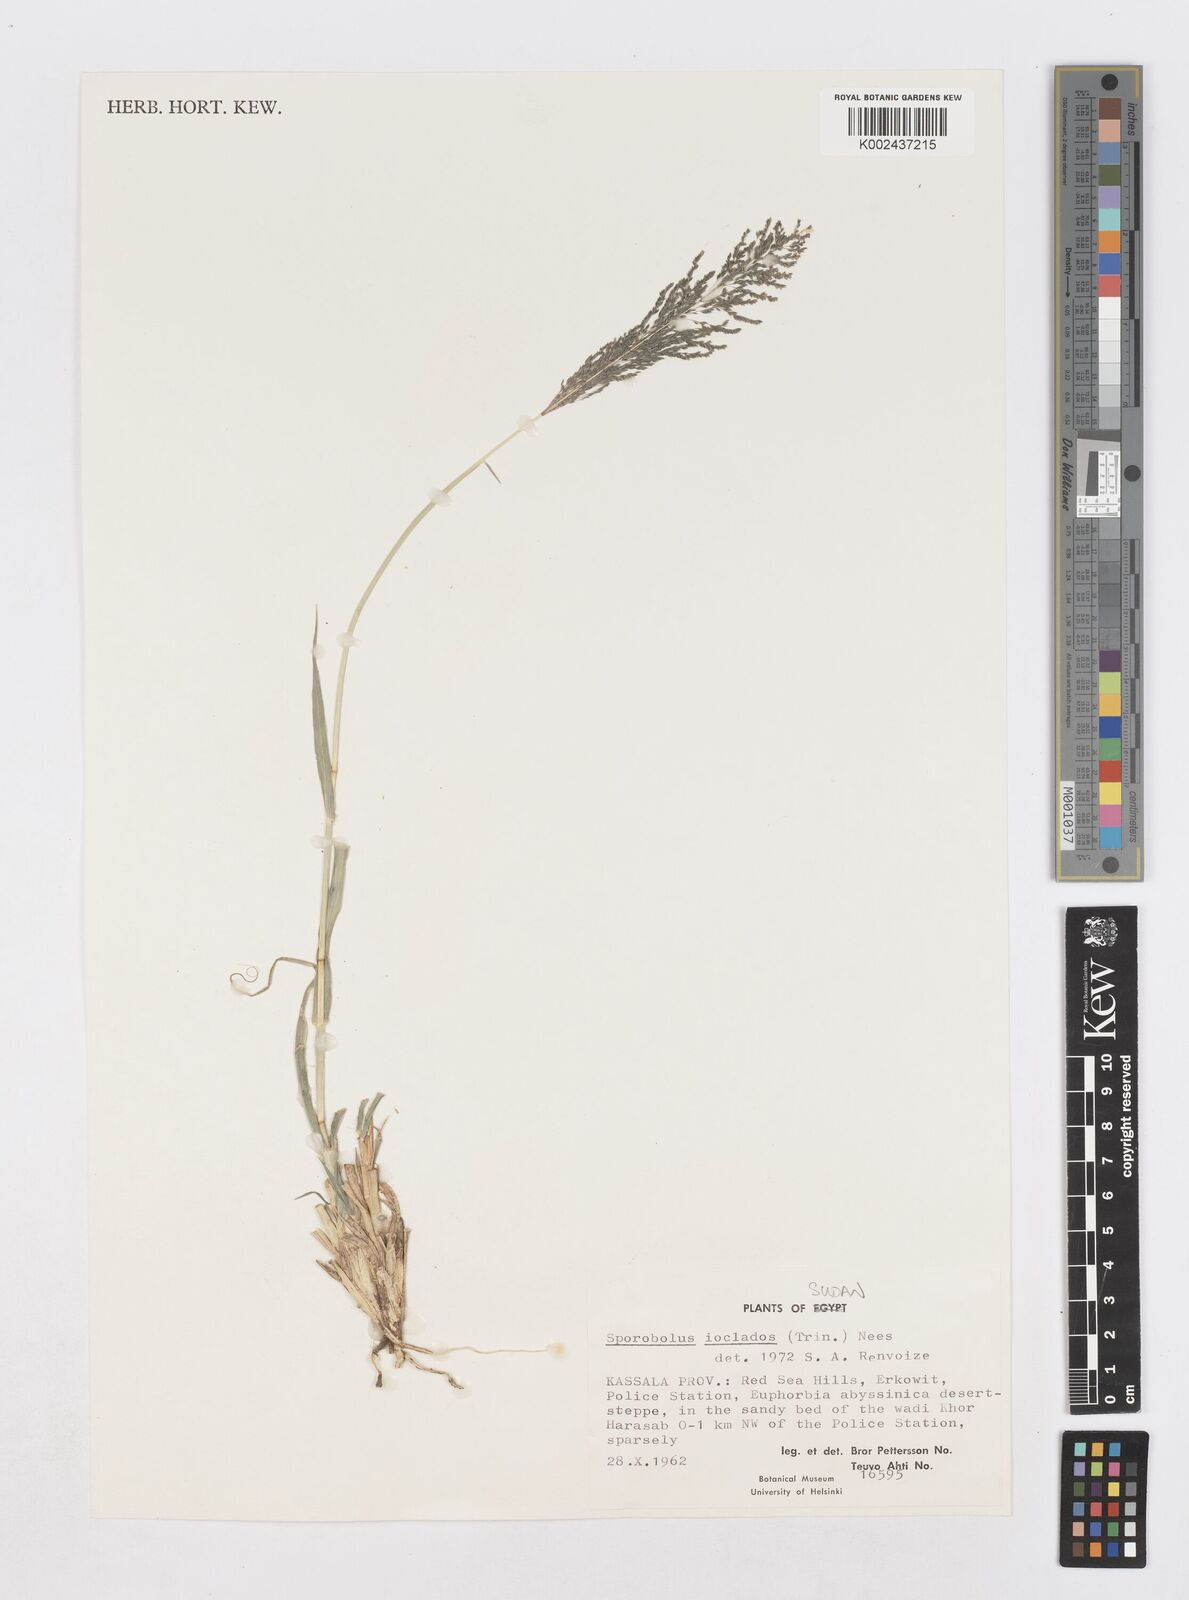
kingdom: Plantae
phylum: Tracheophyta
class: Liliopsida
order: Poales
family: Poaceae
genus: Sporobolus
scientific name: Sporobolus ioclados
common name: Pan dropseed
